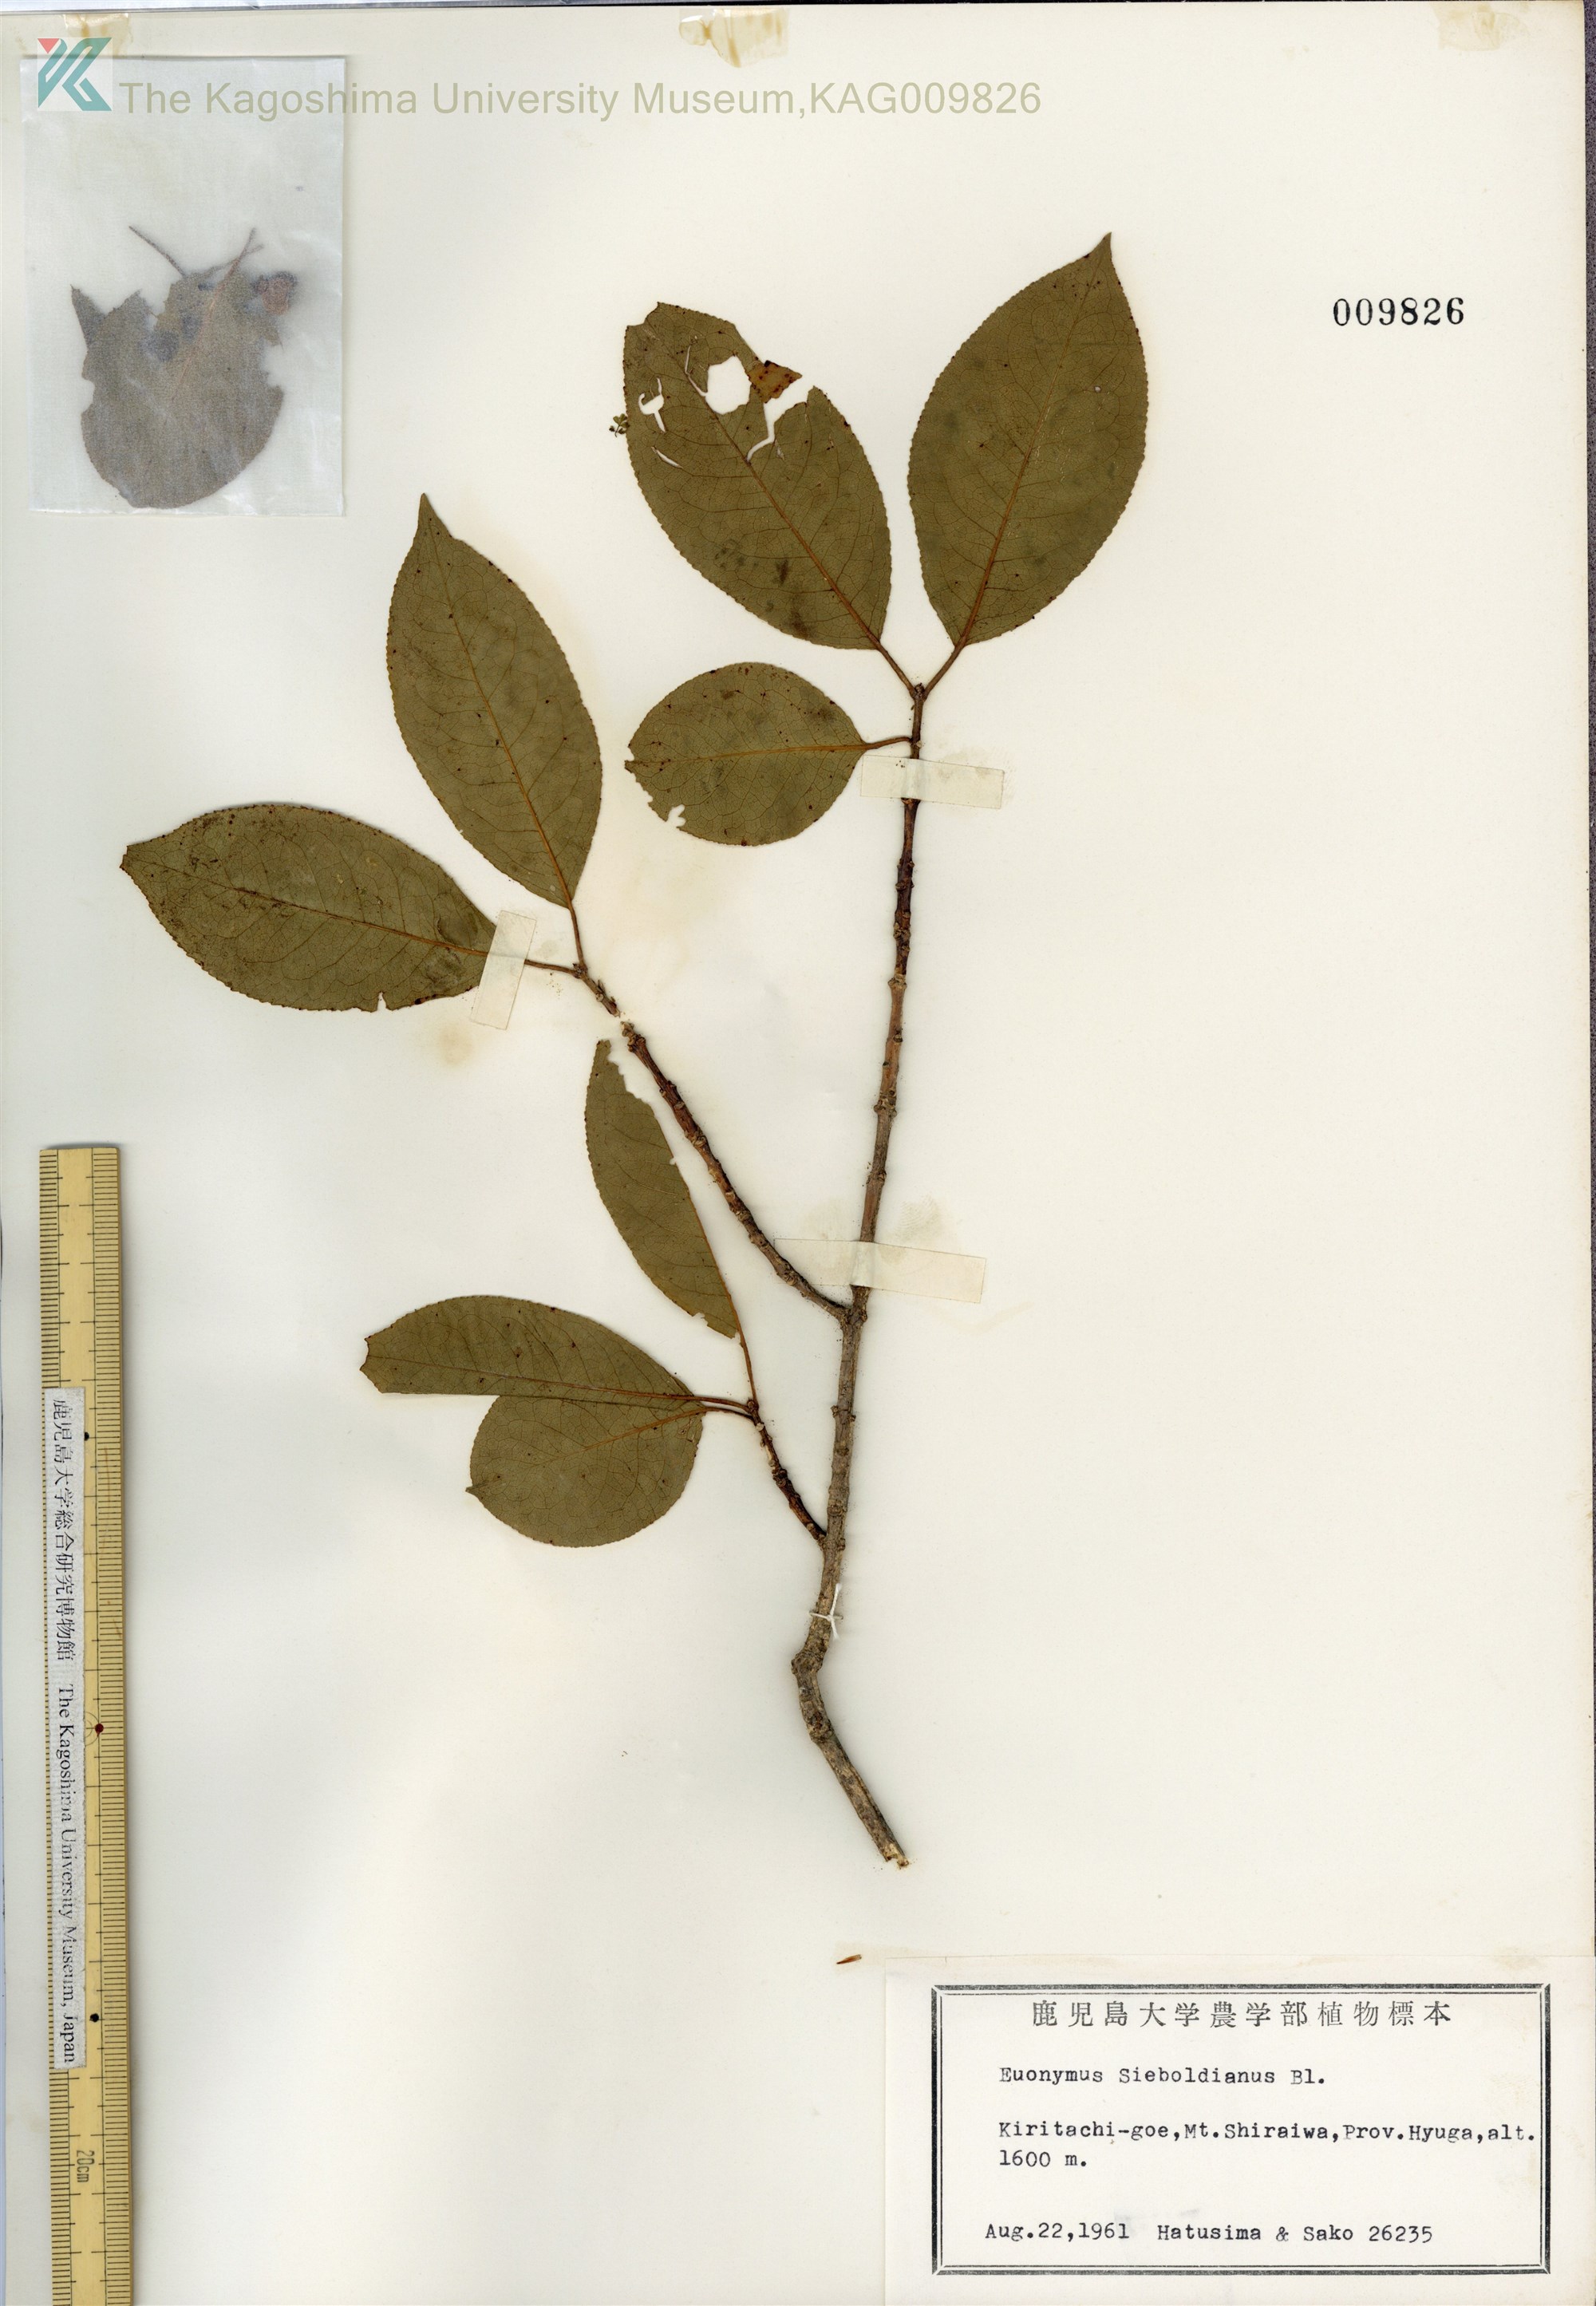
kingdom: Plantae
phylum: Tracheophyta
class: Magnoliopsida
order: Celastrales
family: Celastraceae
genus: Euonymus
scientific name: Euonymus hamiltonianus
